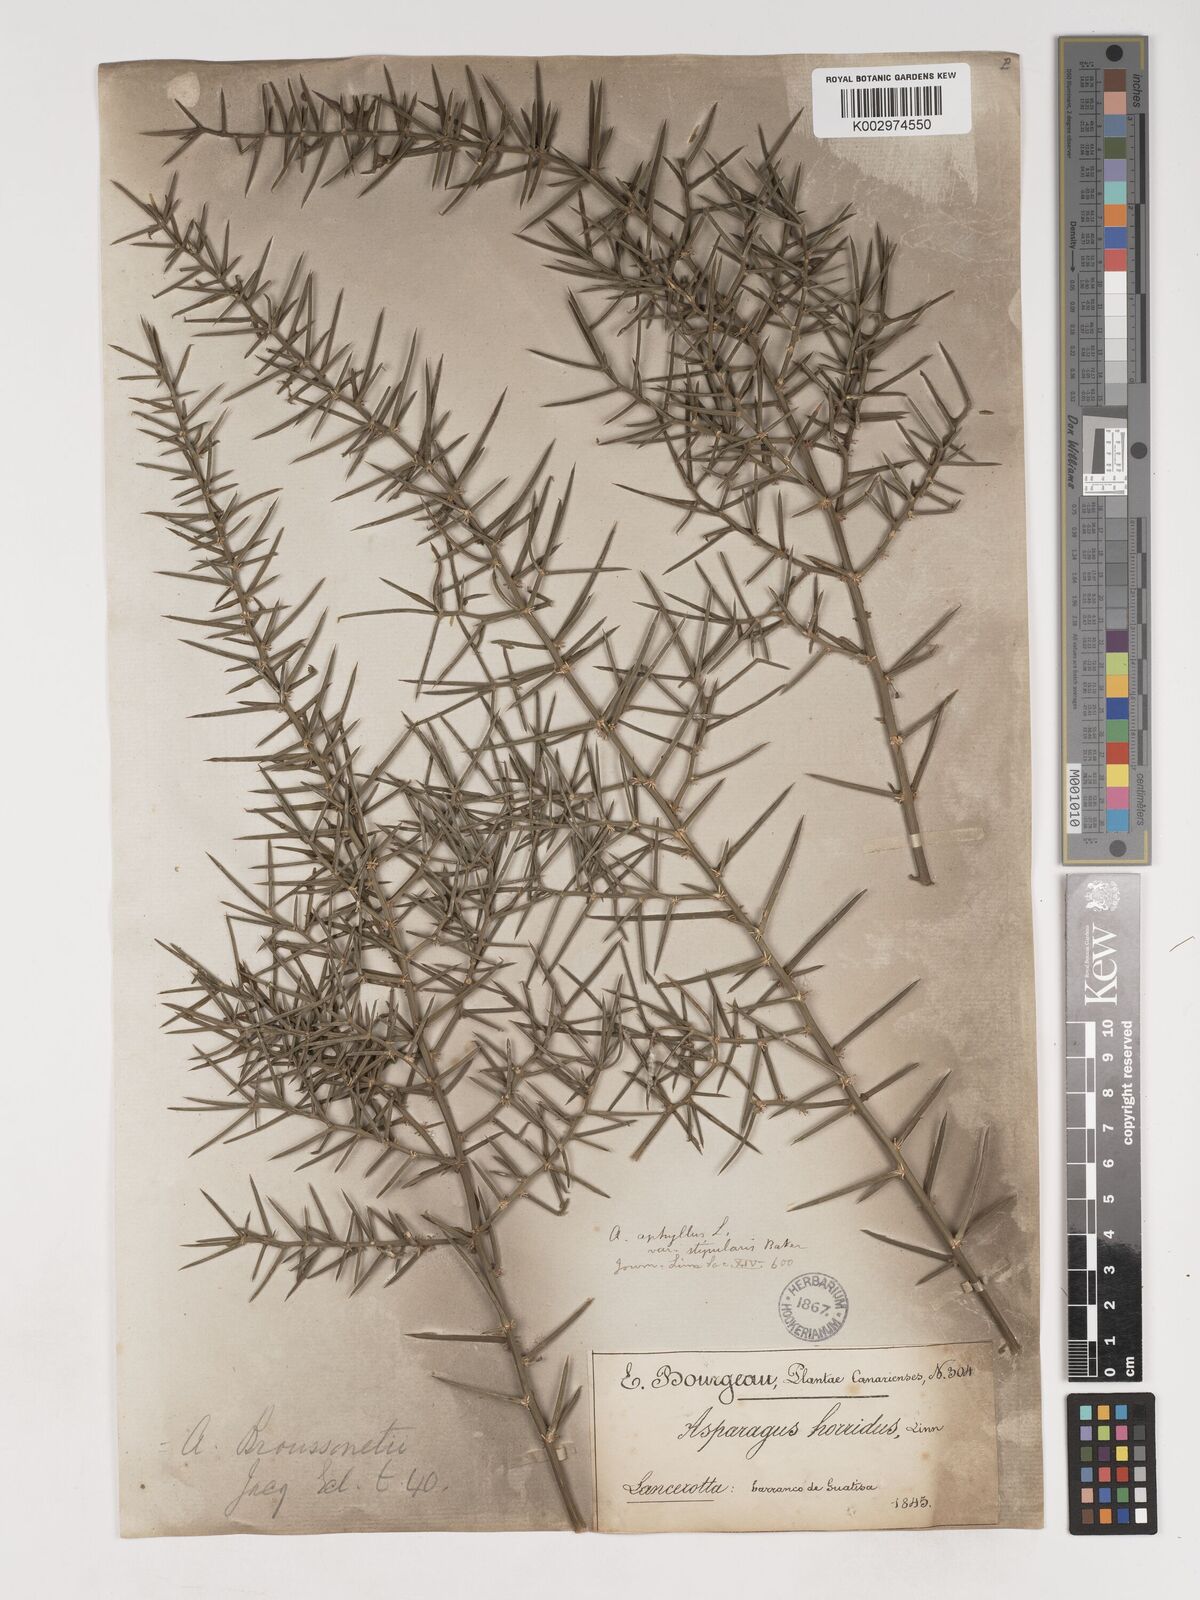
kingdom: Plantae
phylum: Tracheophyta
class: Liliopsida
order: Asparagales
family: Asparagaceae
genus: Asparagus
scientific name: Asparagus aphyllus
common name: Mediterranean asparagus
